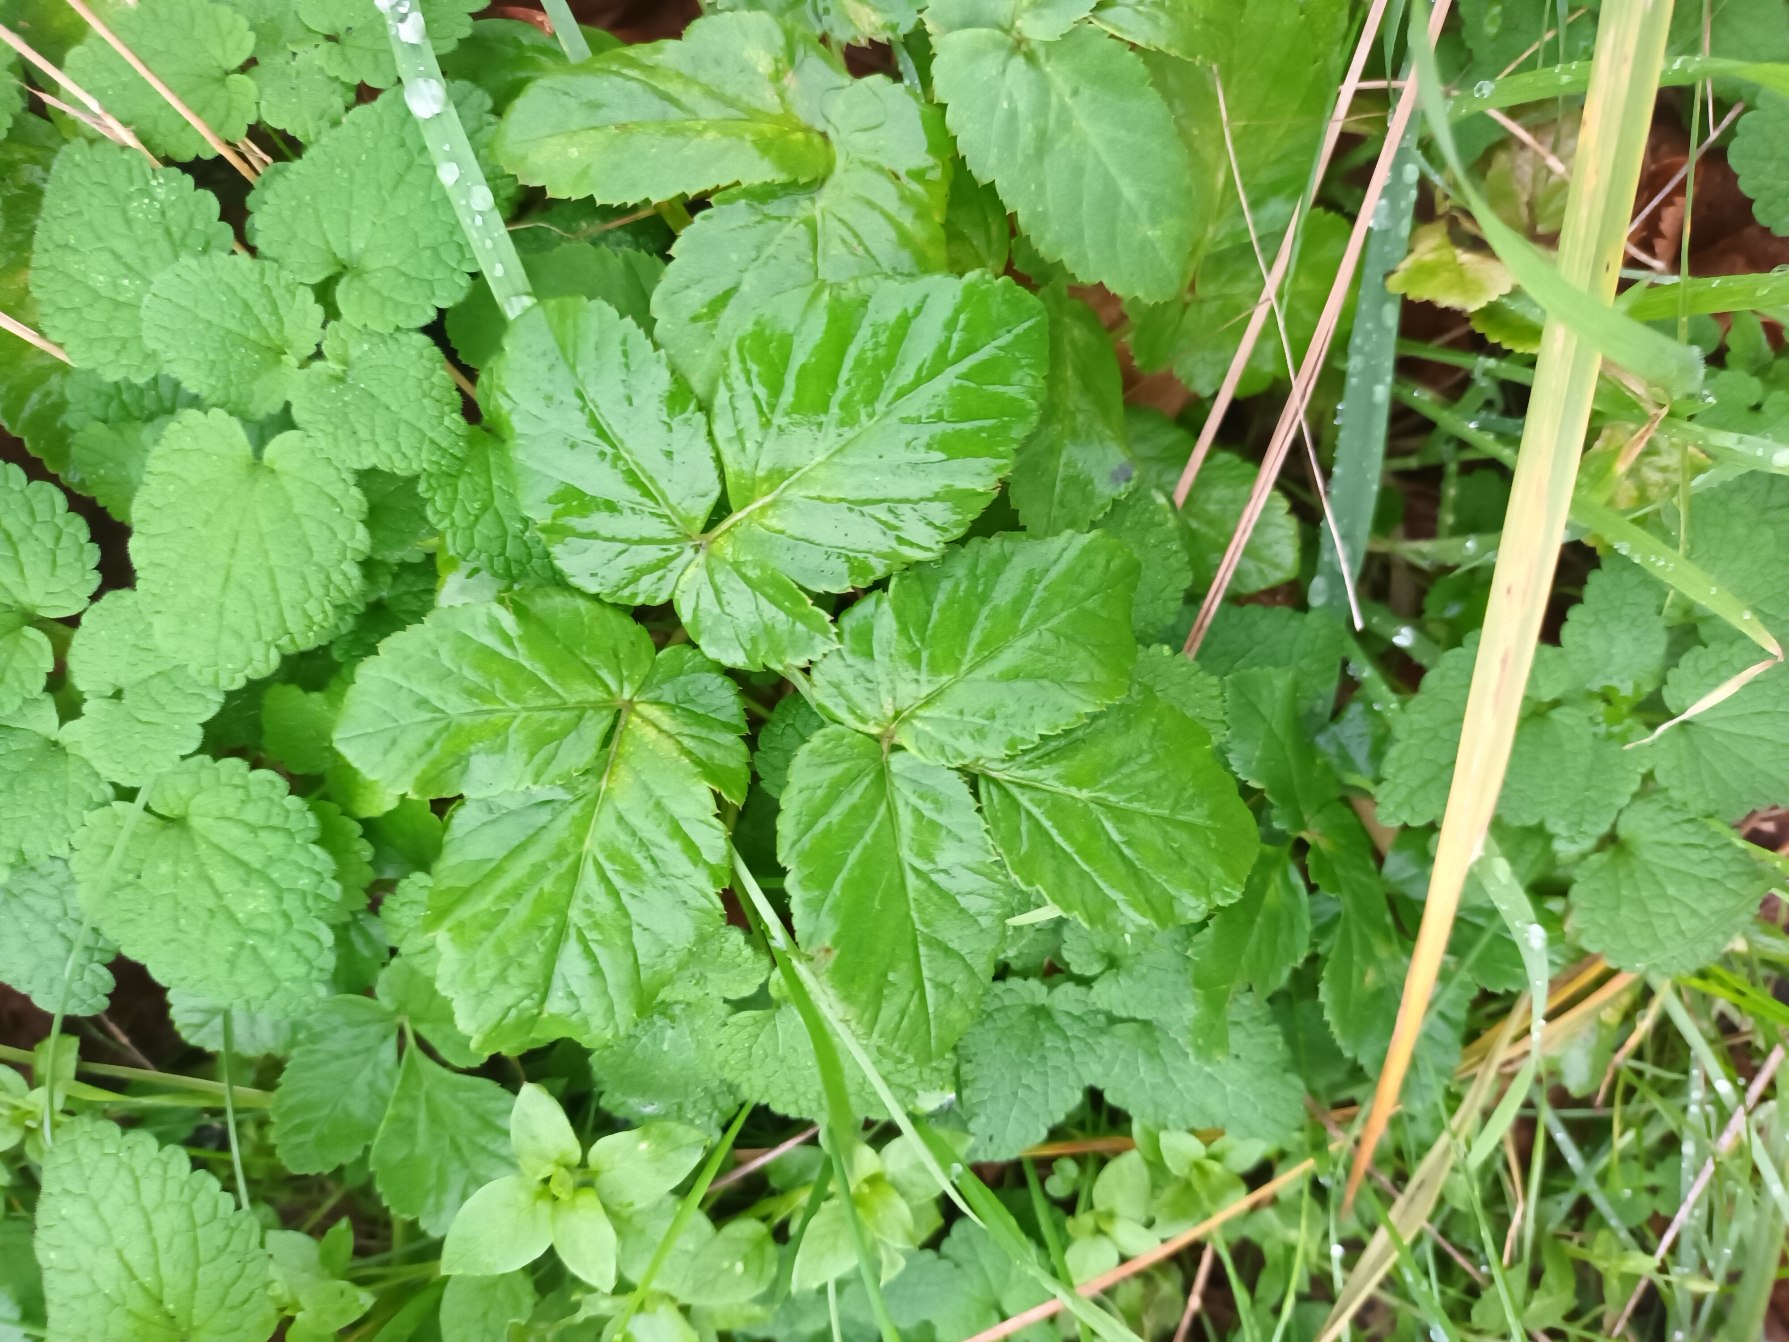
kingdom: Plantae
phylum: Tracheophyta
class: Magnoliopsida
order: Apiales
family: Apiaceae
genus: Aegopodium
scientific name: Aegopodium podagraria
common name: Skvalderkål
